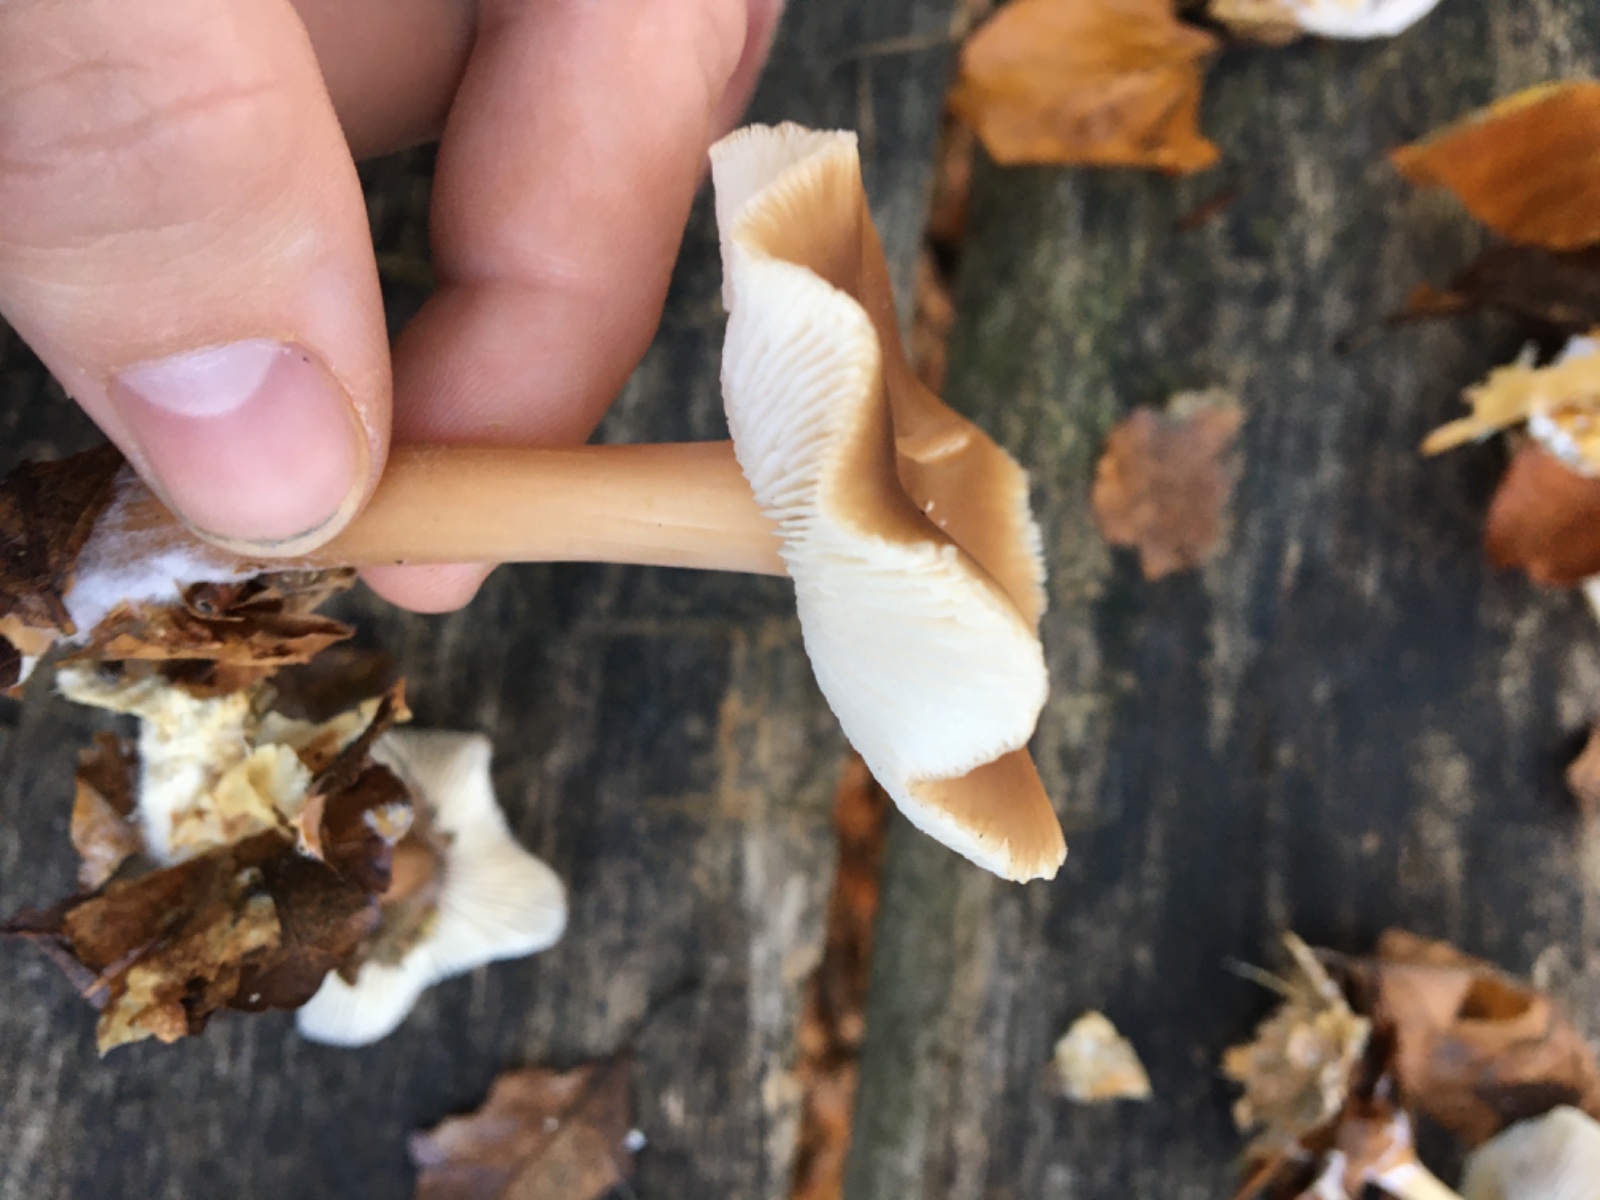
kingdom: Fungi
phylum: Basidiomycota
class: Agaricomycetes
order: Agaricales
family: Omphalotaceae
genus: Rhodocollybia
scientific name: Rhodocollybia asema
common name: horngrå fladhat
